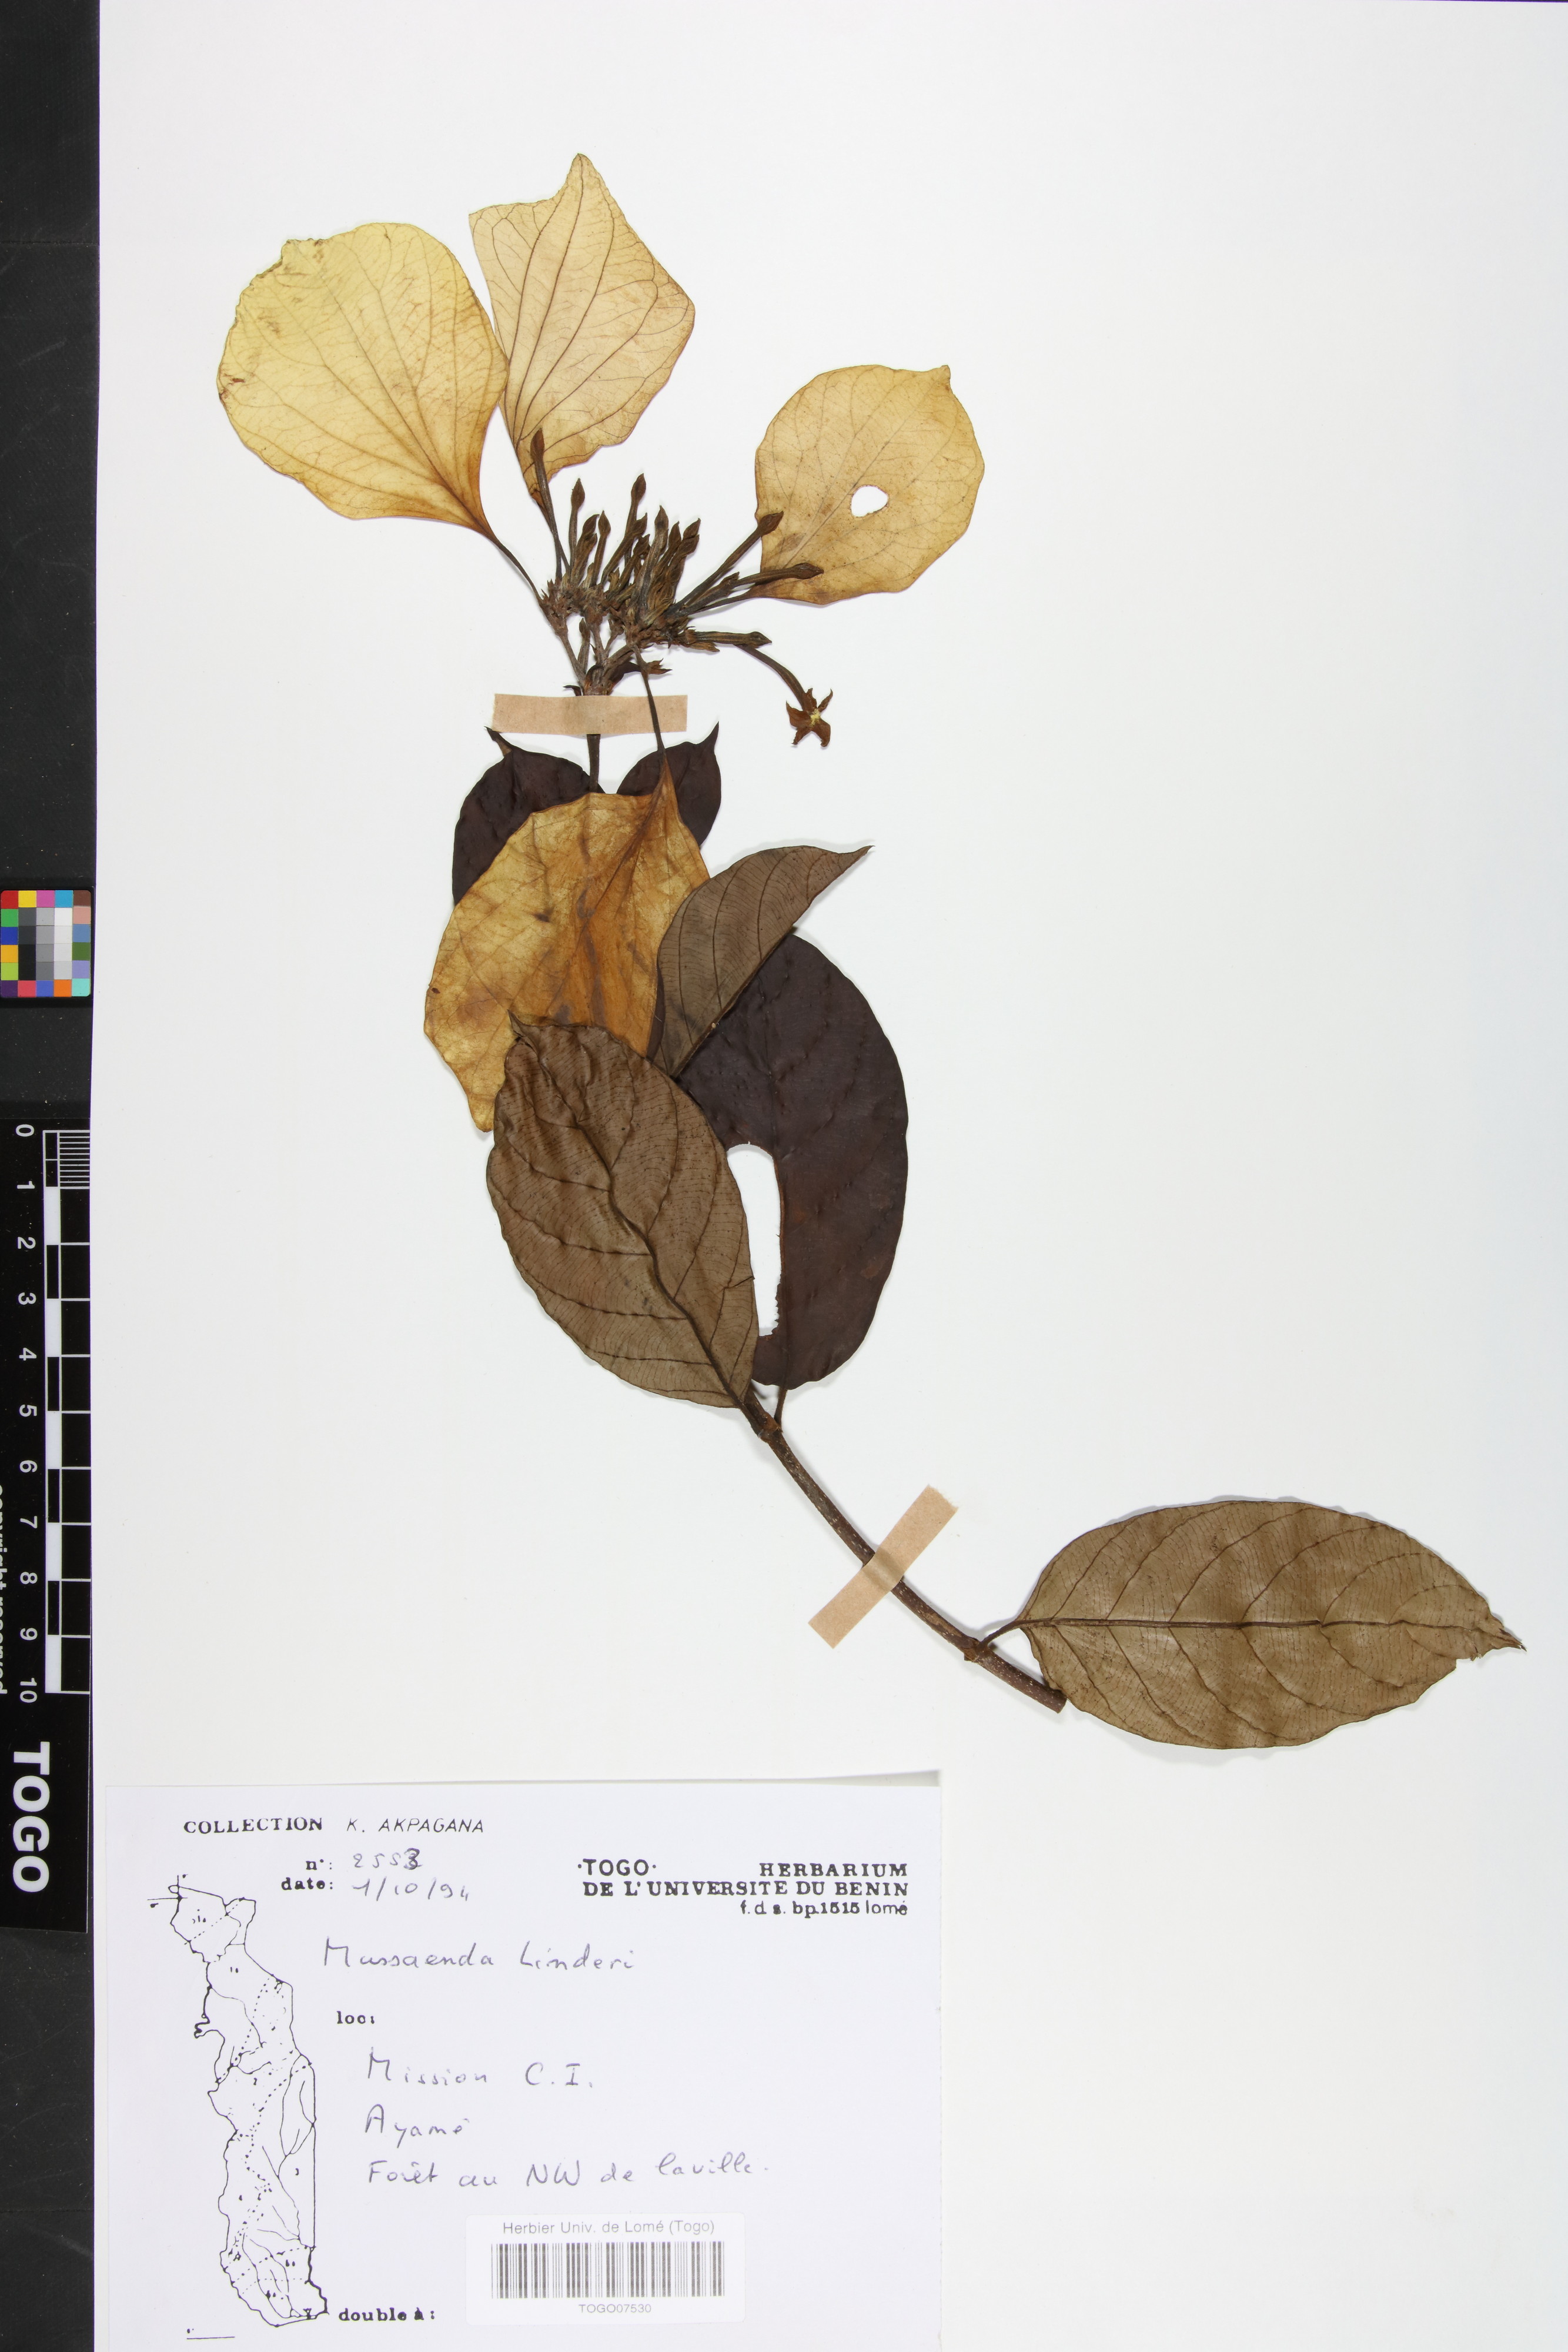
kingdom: Plantae
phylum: Tracheophyta
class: Magnoliopsida
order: Gentianales
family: Rubiaceae
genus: Mussaenda
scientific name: Mussaenda linderi
